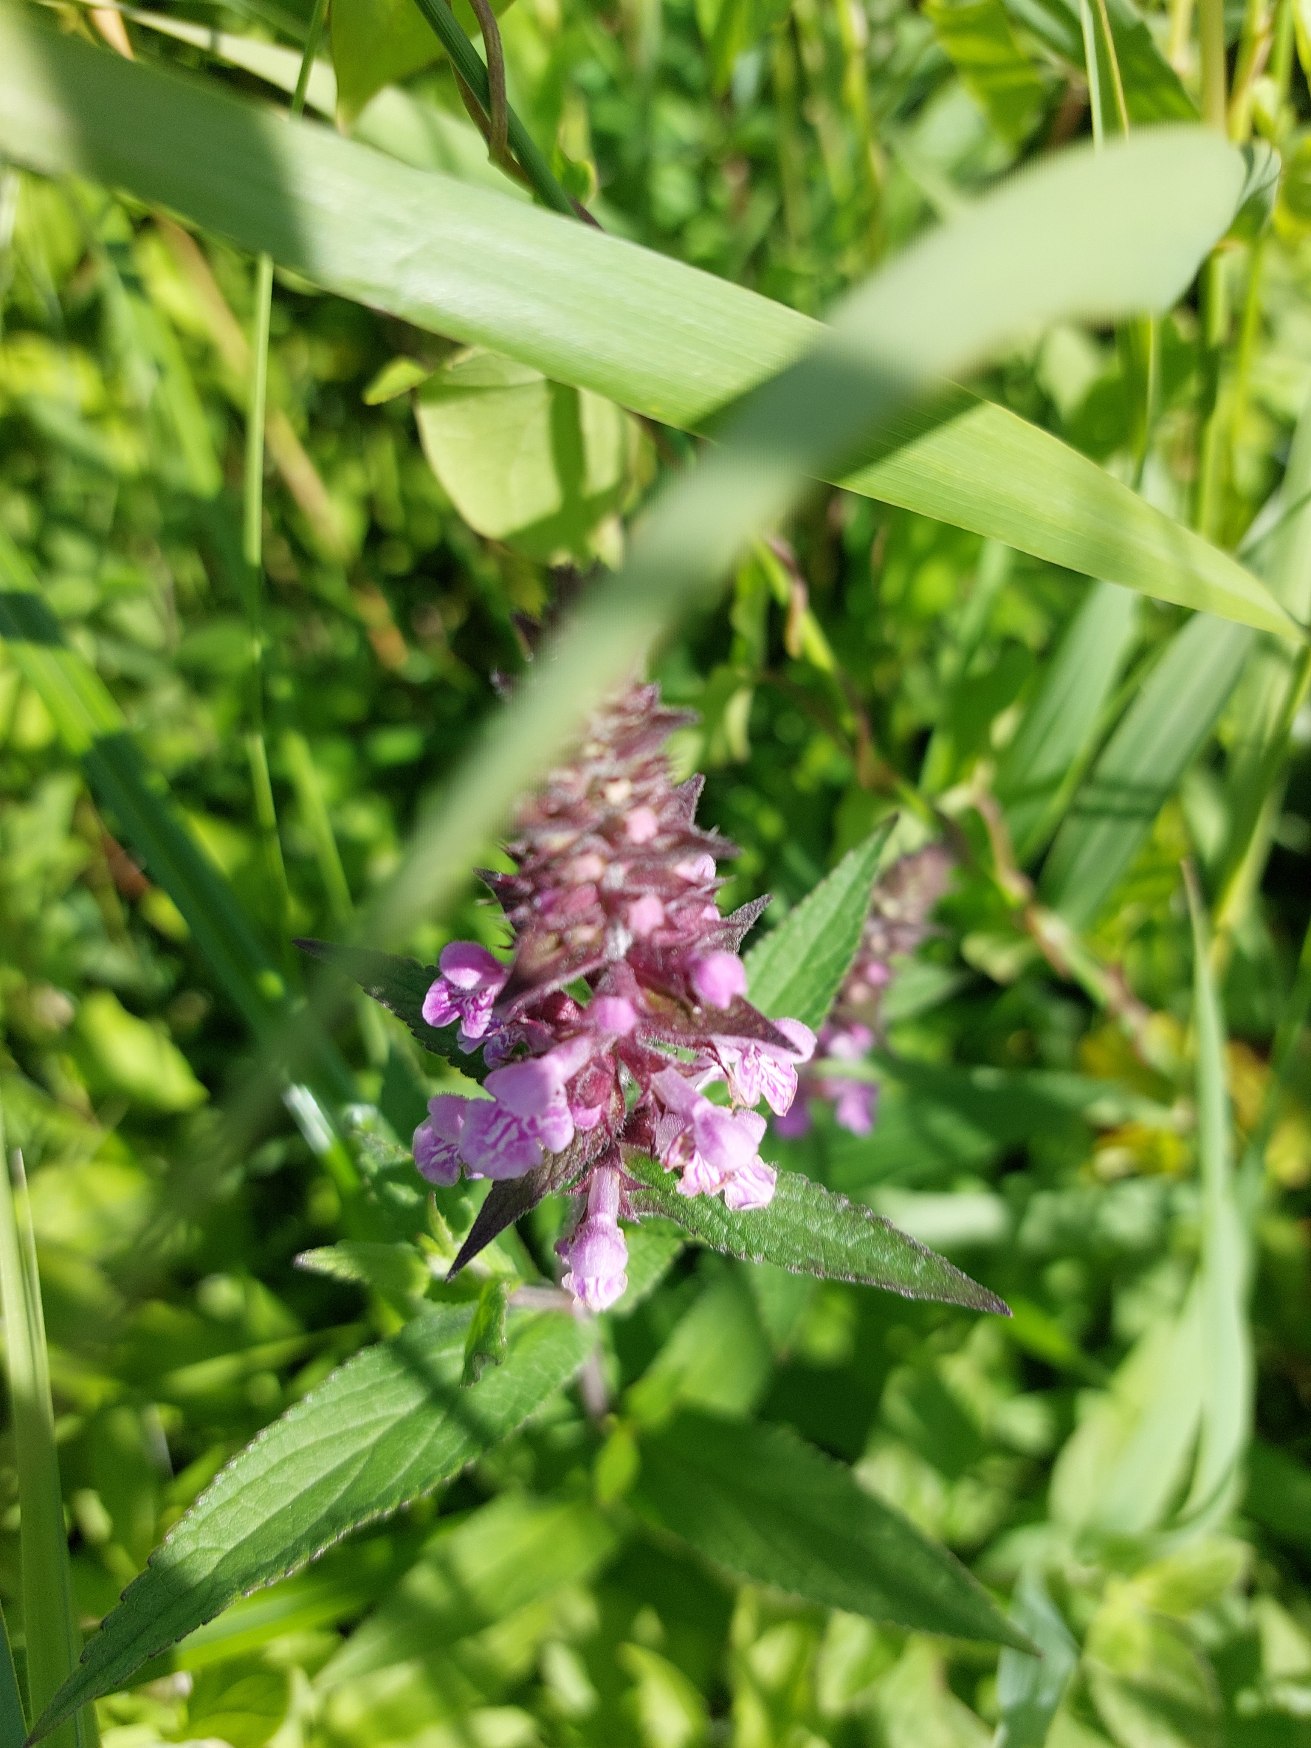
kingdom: Plantae
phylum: Tracheophyta
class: Magnoliopsida
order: Lamiales
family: Lamiaceae
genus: Stachys
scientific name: Stachys palustris
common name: Kær-galtetand
